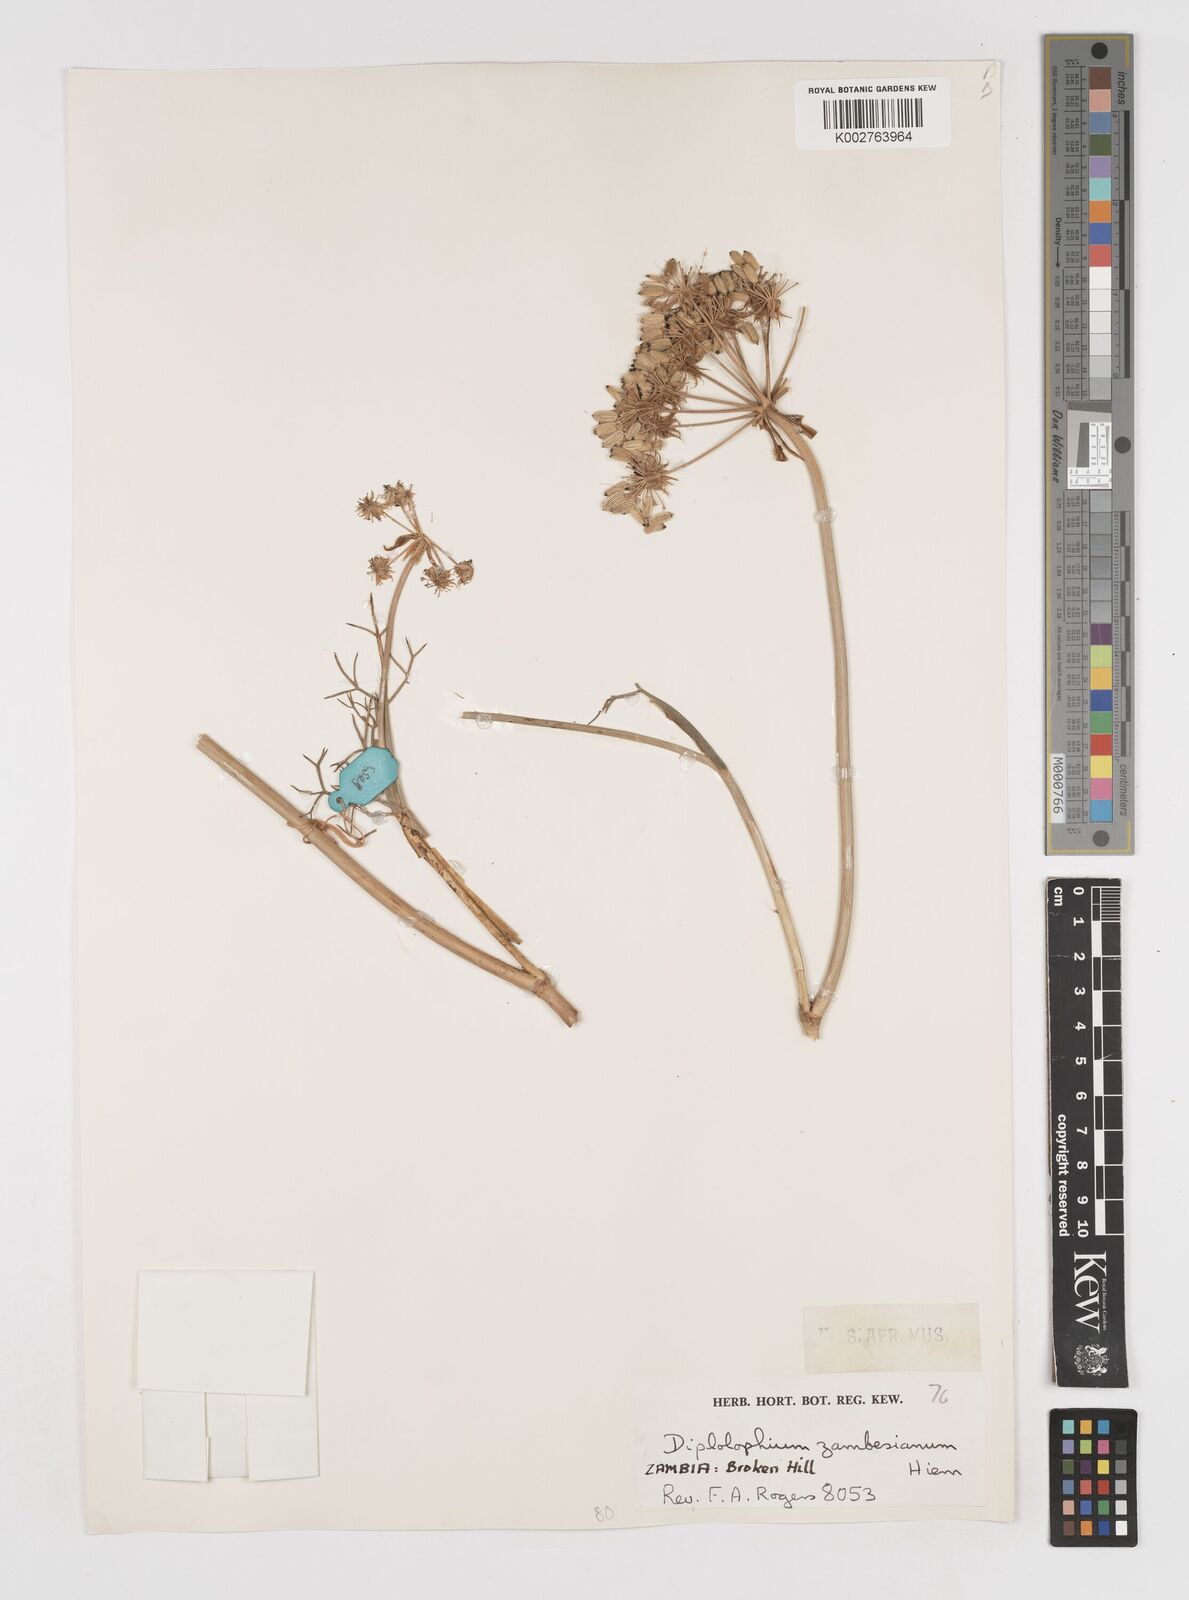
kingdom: Plantae
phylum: Tracheophyta
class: Magnoliopsida
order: Apiales
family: Apiaceae
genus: Diplolophium
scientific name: Diplolophium zambesianum
